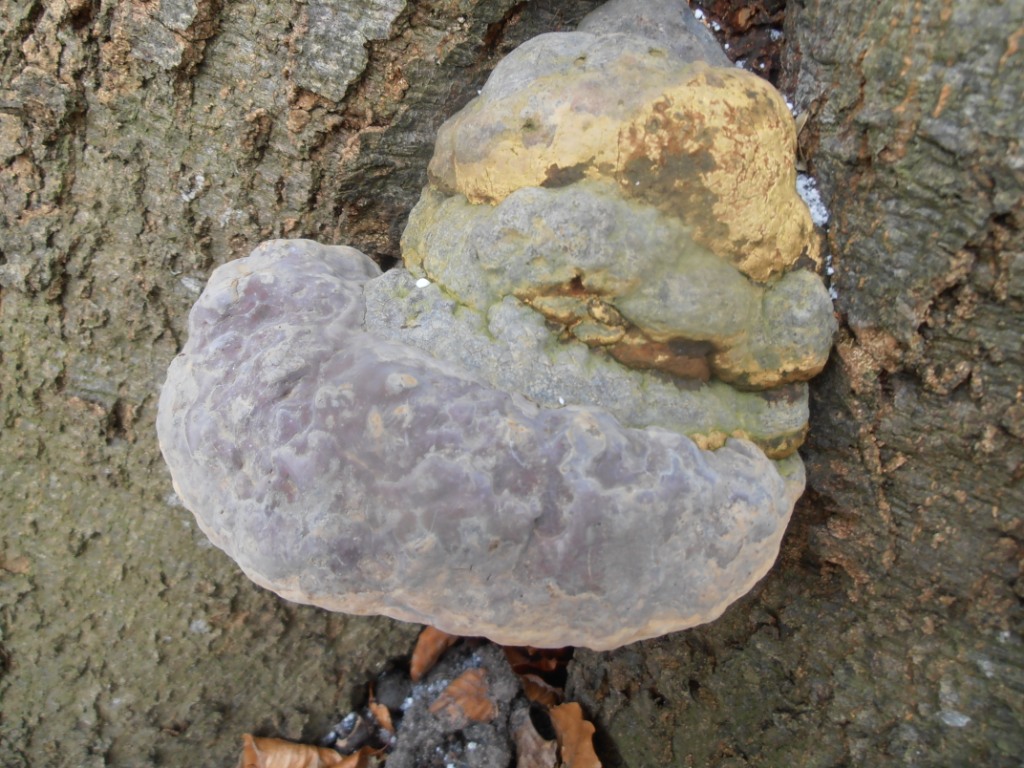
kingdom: Fungi
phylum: Basidiomycota
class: Agaricomycetes
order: Polyporales
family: Polyporaceae
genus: Ganoderma
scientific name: Ganoderma pfeifferi
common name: kobberrød lakporesvamp
